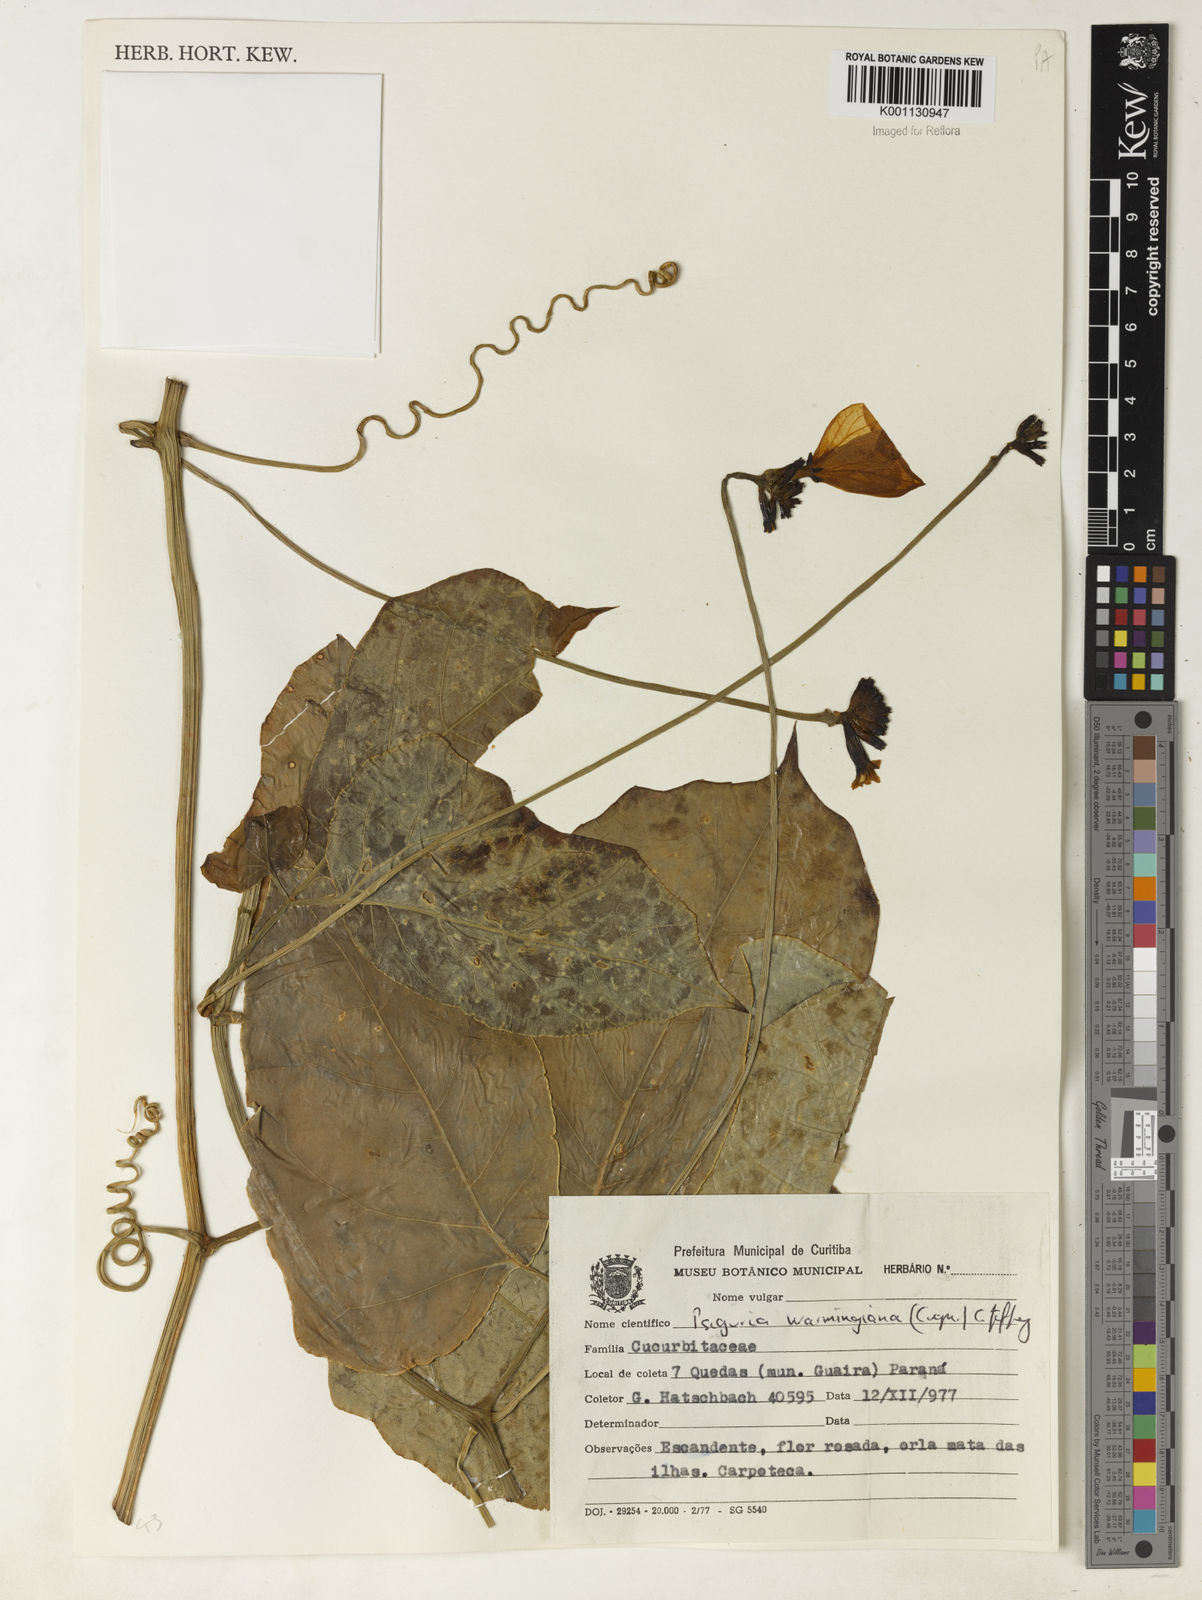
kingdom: Plantae
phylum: Tracheophyta
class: Magnoliopsida
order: Cucurbitales
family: Cucurbitaceae
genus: Psiguria
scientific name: Psiguria ternata
